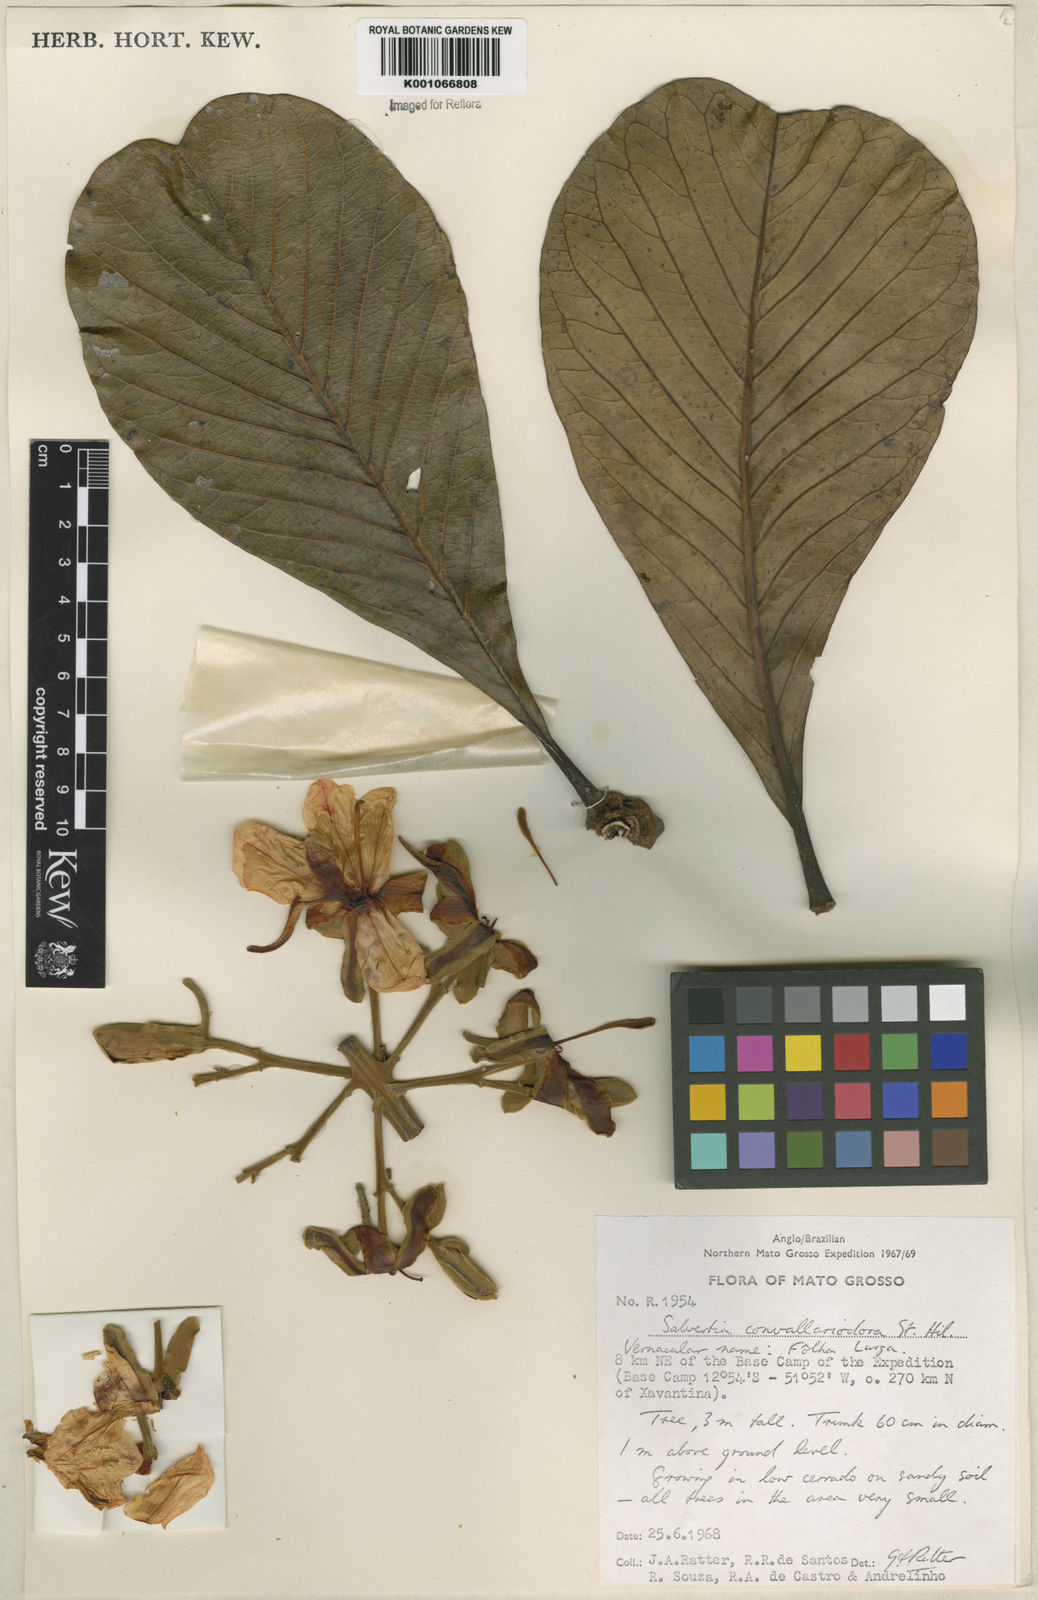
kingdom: Plantae
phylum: Tracheophyta
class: Magnoliopsida
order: Myrtales
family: Vochysiaceae
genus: Salvertia
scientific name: Salvertia convallariodora
